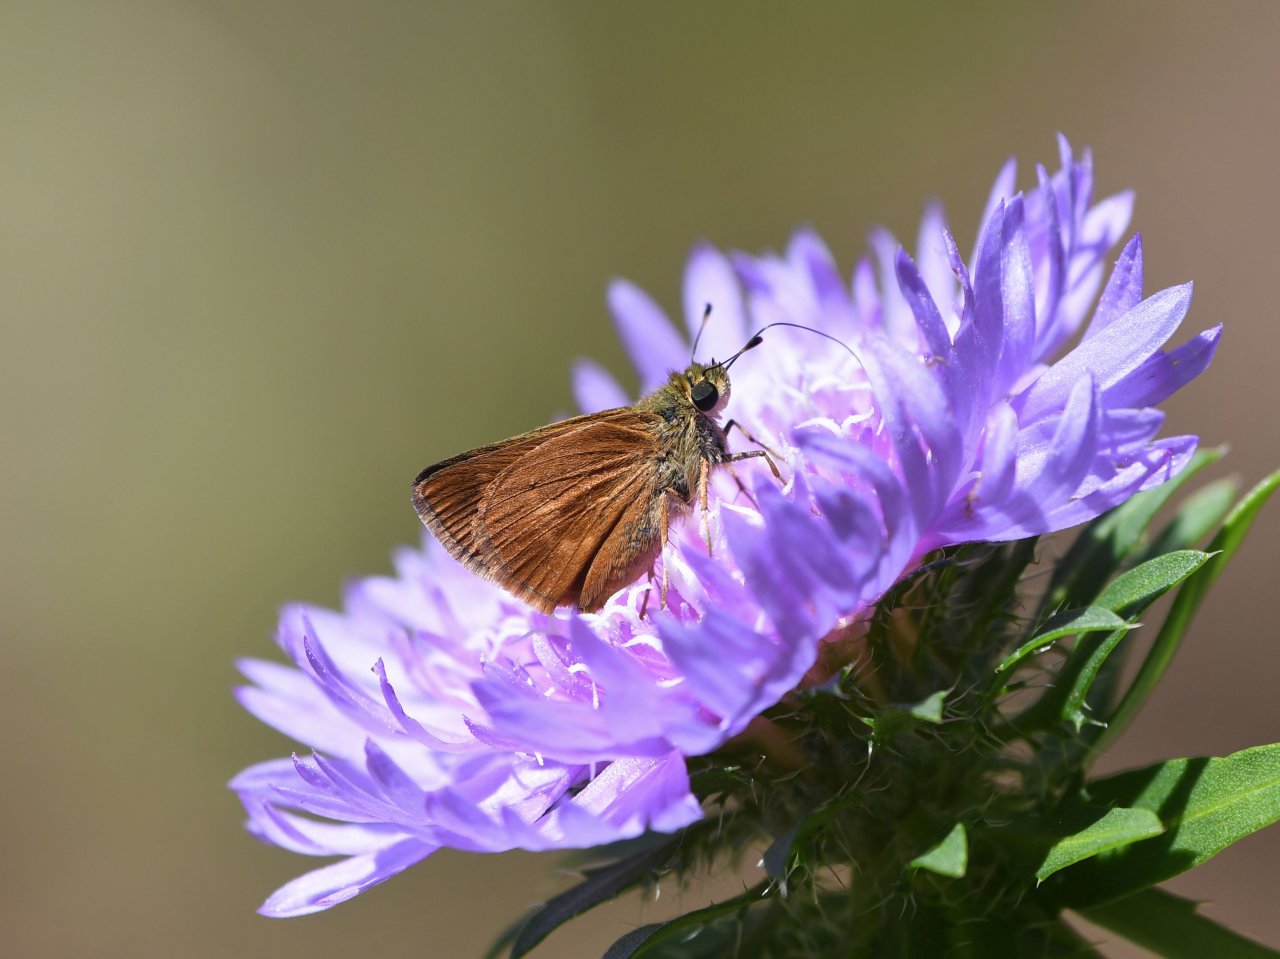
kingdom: Animalia
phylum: Arthropoda
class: Insecta
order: Lepidoptera
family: Hesperiidae
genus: Wallengrenia
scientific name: Wallengrenia otho
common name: Southern Broken-Dash
